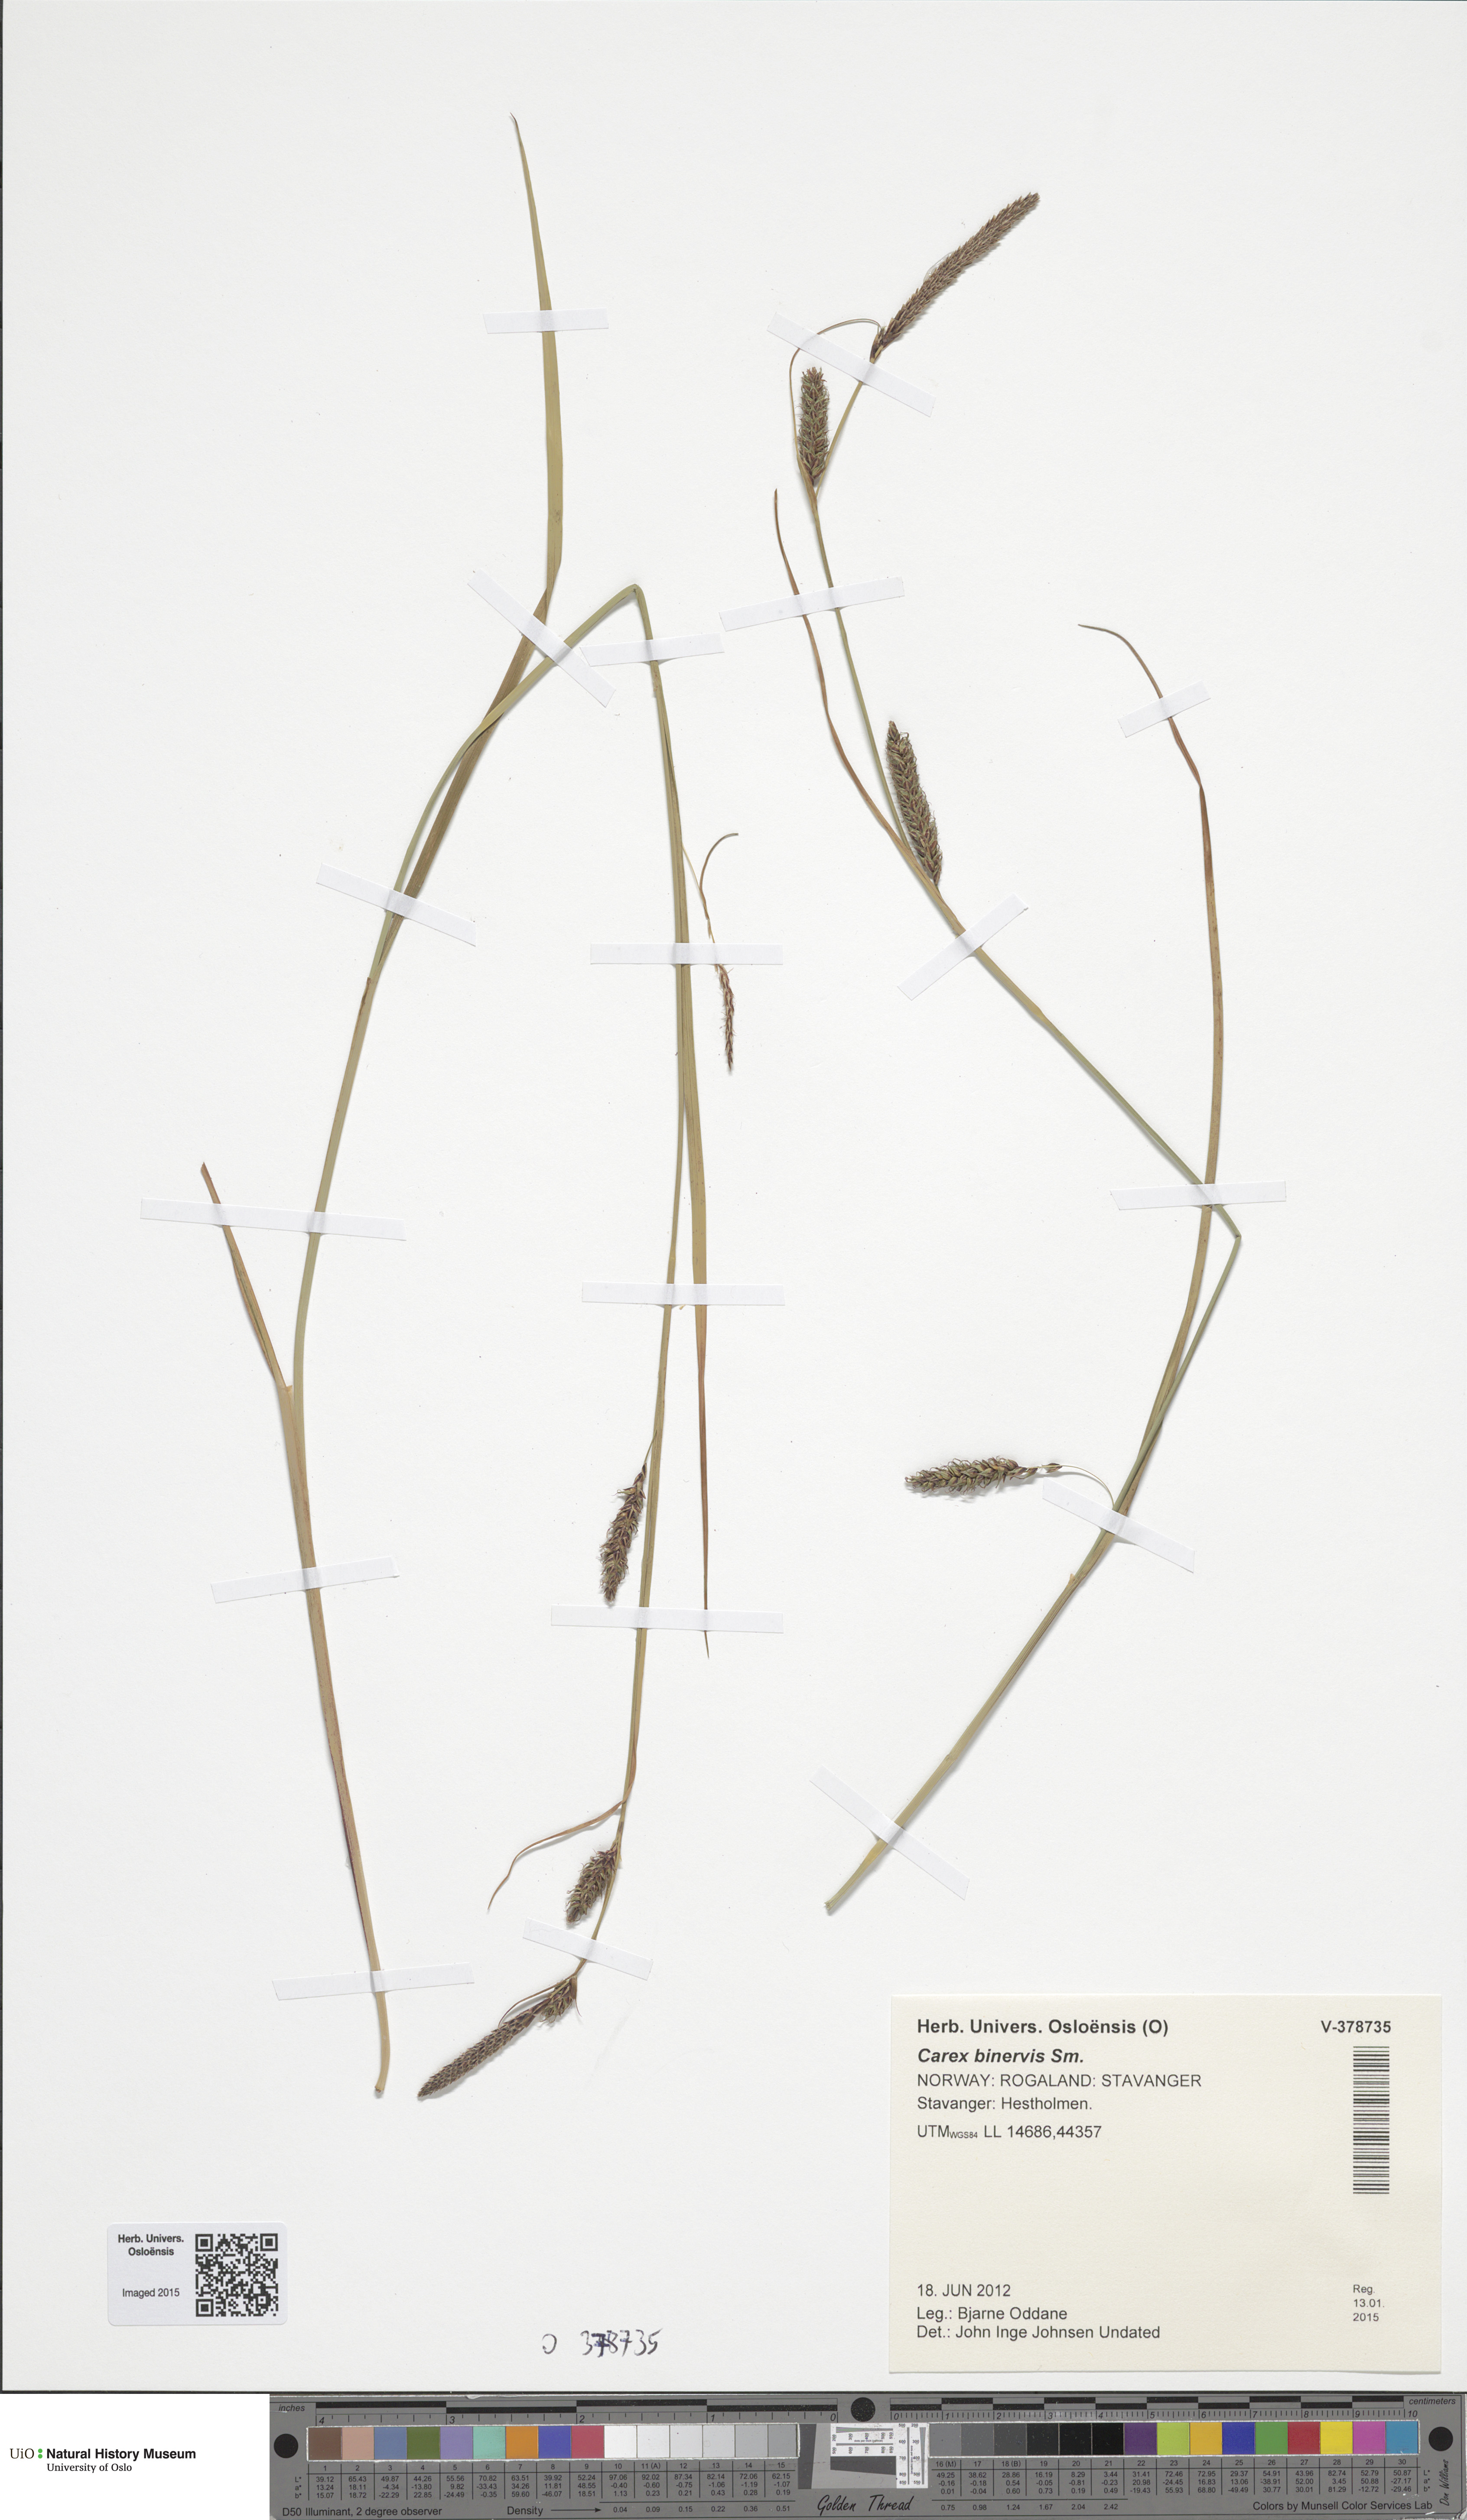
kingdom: Plantae
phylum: Tracheophyta
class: Liliopsida
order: Poales
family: Cyperaceae
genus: Carex
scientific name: Carex binervis
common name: Green-ribbed sedge
